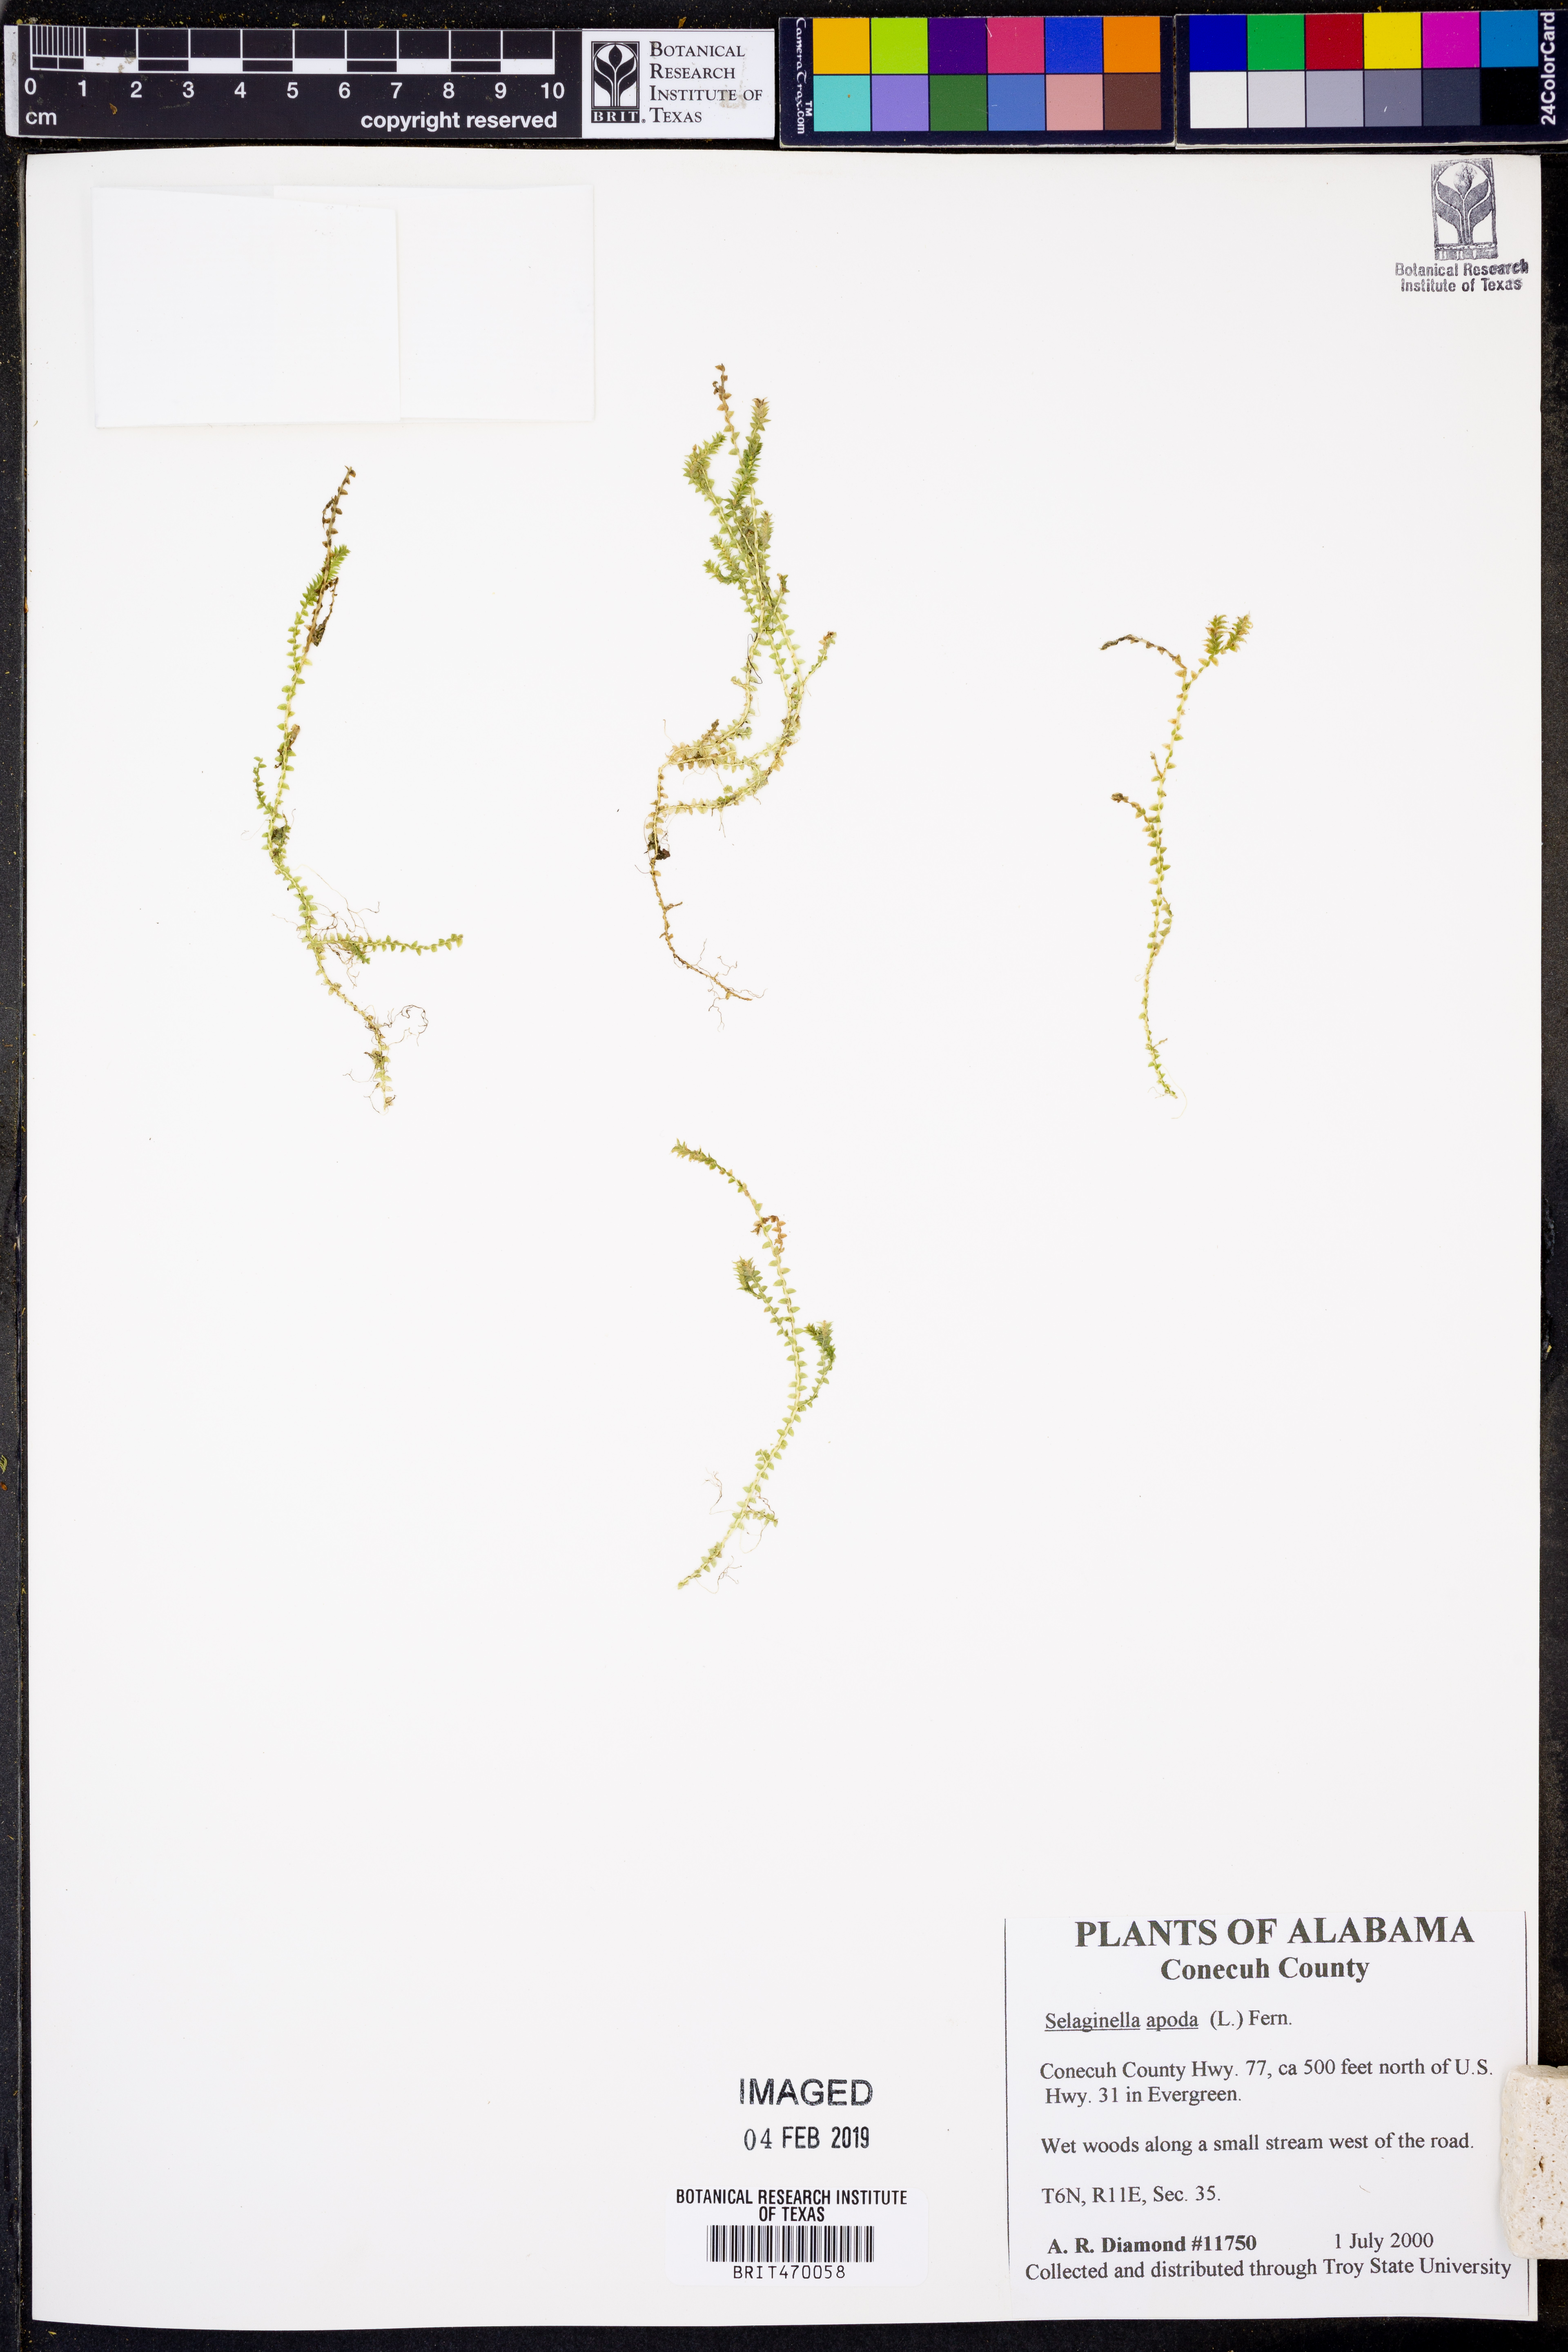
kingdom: Plantae
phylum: Tracheophyta
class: Lycopodiopsida
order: Selaginellales
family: Selaginellaceae
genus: Selaginella
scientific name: Selaginella apoda
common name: Creeping spikemoss
